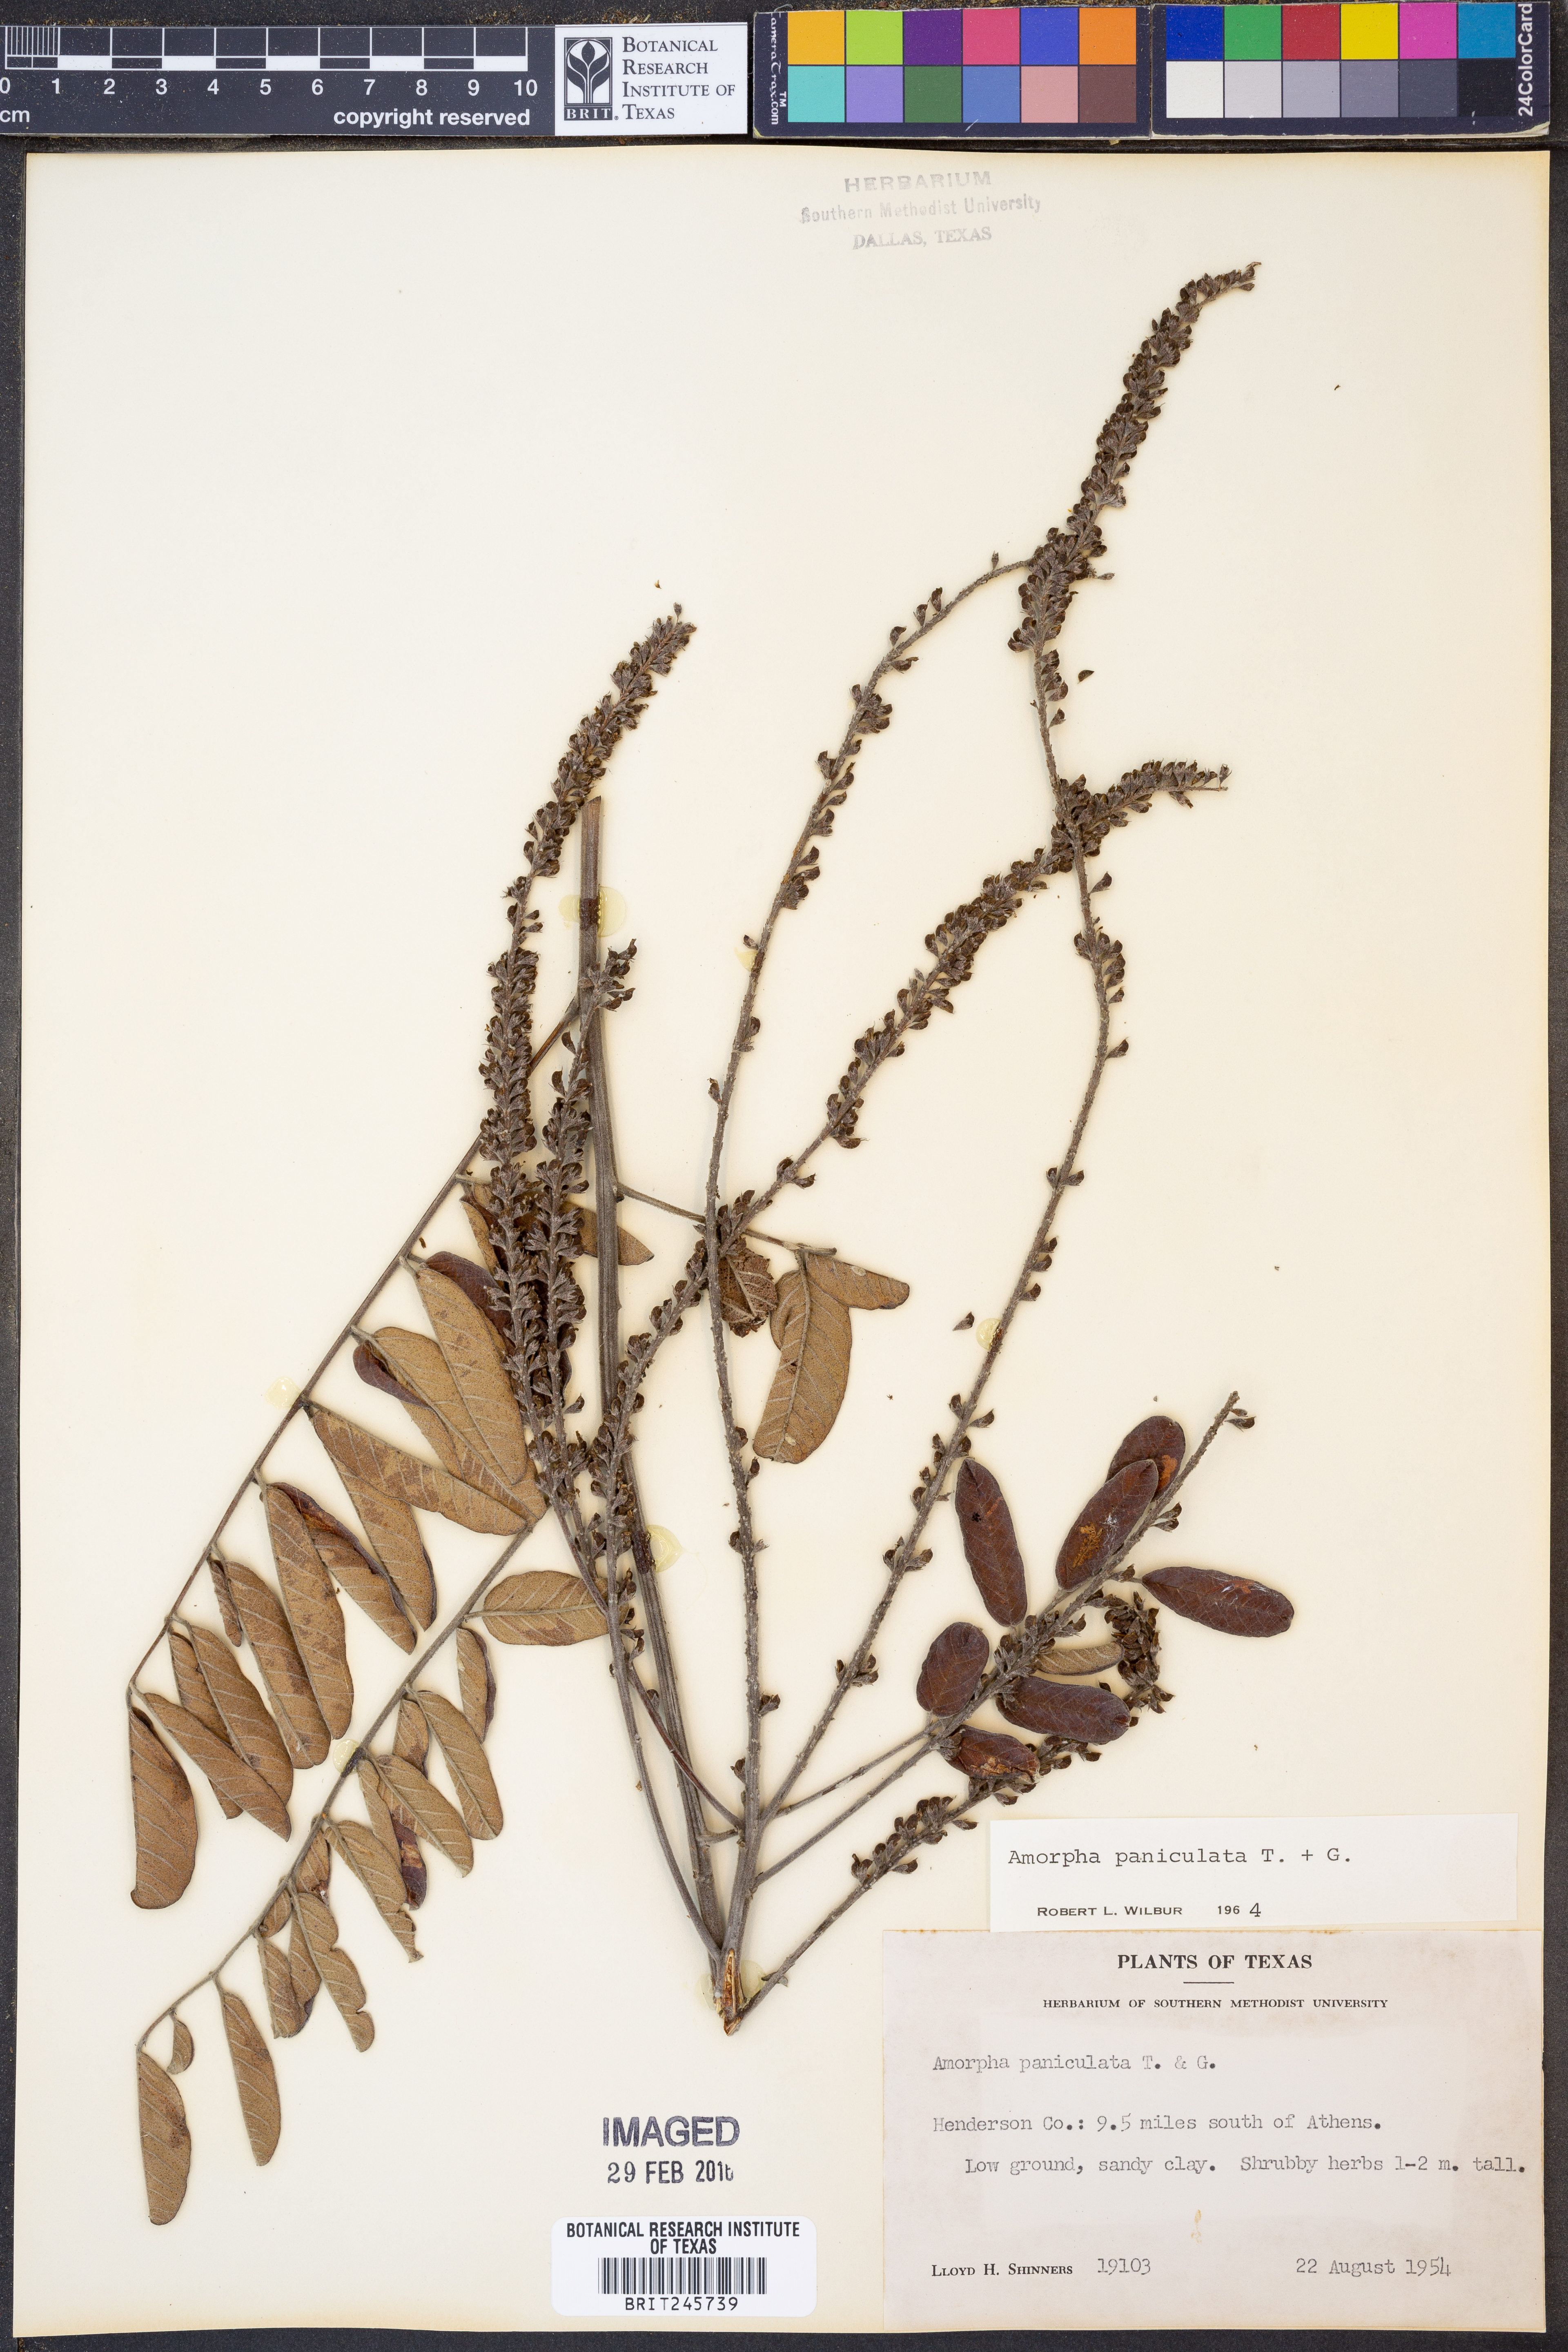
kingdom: Plantae
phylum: Tracheophyta
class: Magnoliopsida
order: Fabales
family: Fabaceae
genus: Amorpha
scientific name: Amorpha paniculata
